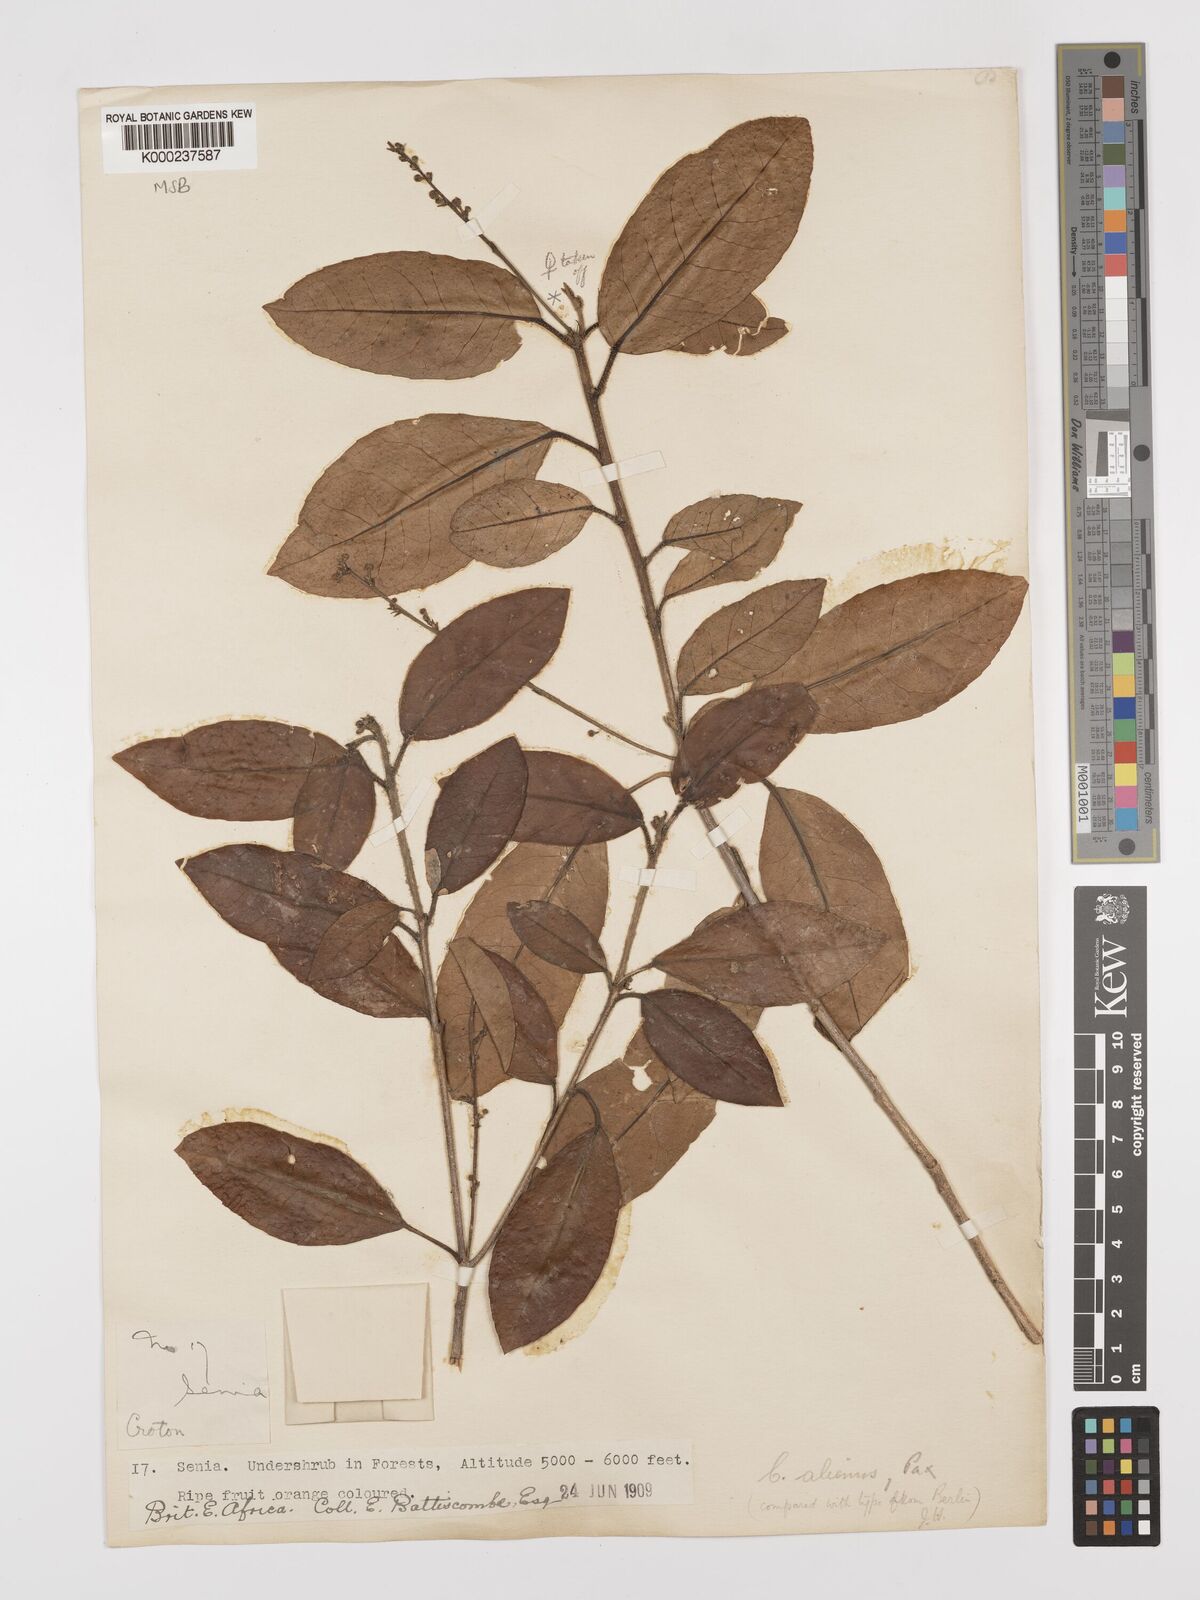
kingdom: Plantae
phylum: Tracheophyta
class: Magnoliopsida
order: Malpighiales
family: Euphorbiaceae
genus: Croton
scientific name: Croton alienus
